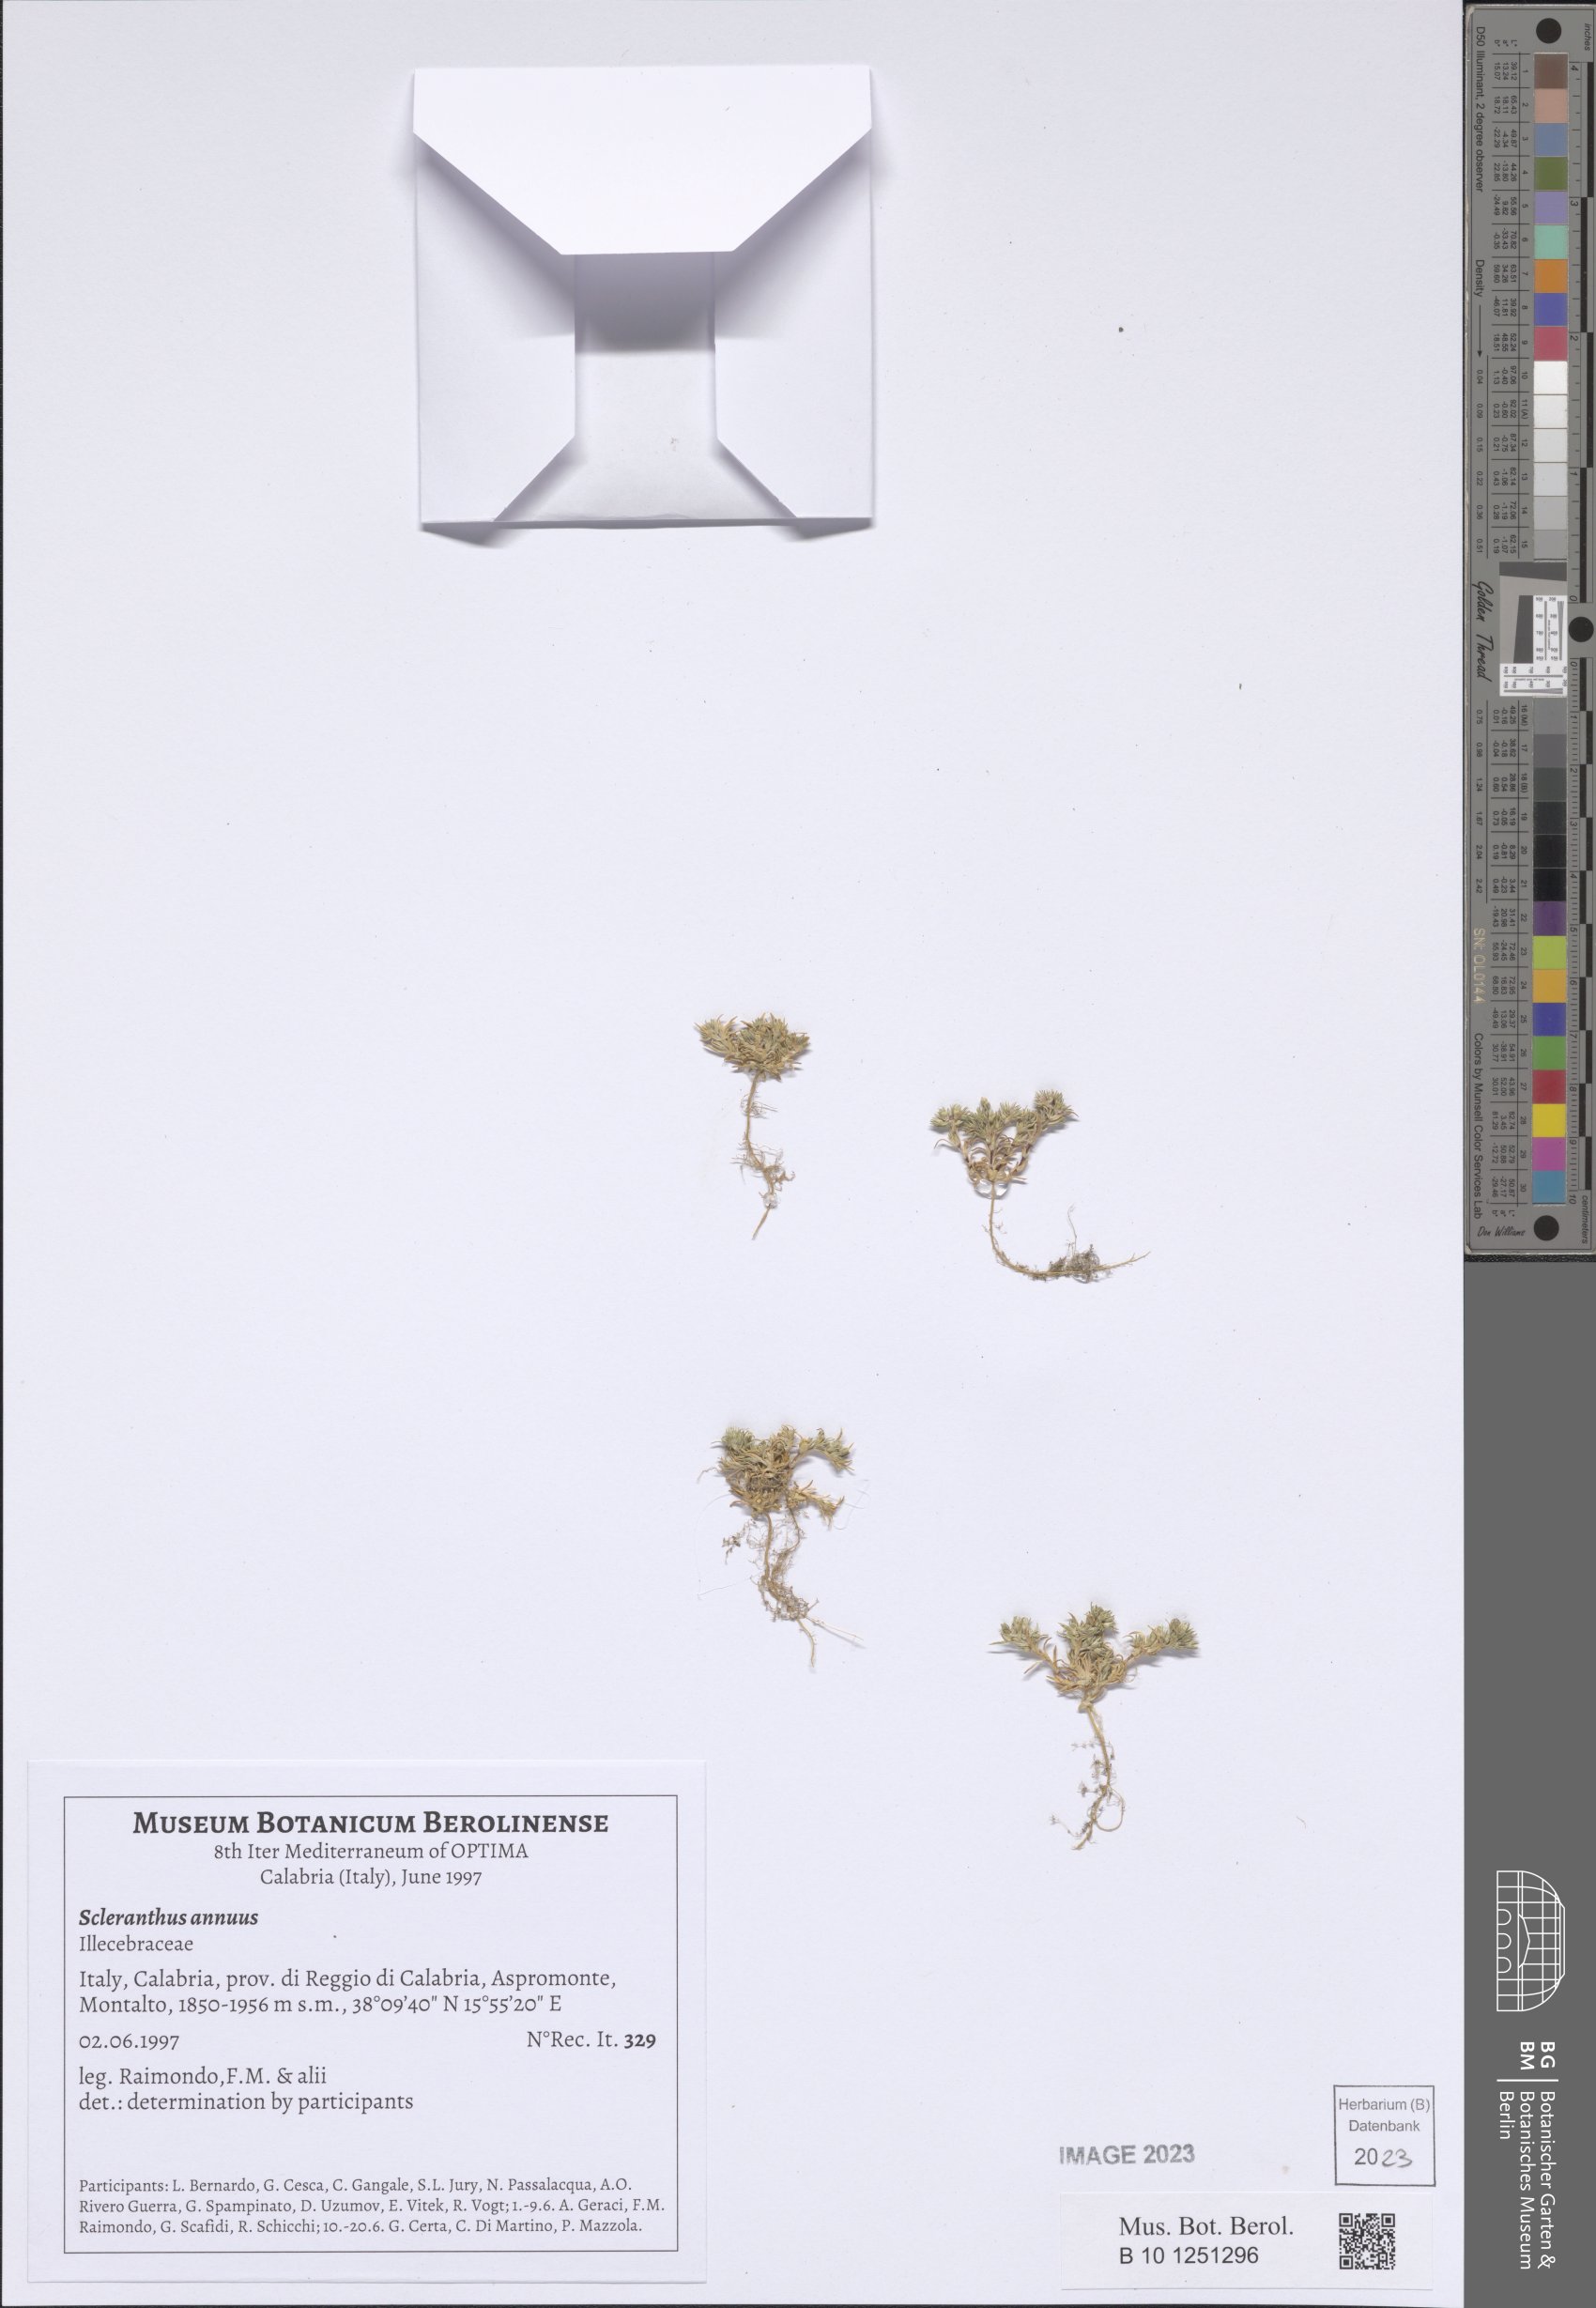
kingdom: Plantae
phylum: Tracheophyta
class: Magnoliopsida
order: Caryophyllales
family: Caryophyllaceae
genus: Scleranthus
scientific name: Scleranthus annuus
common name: Annual knawel
